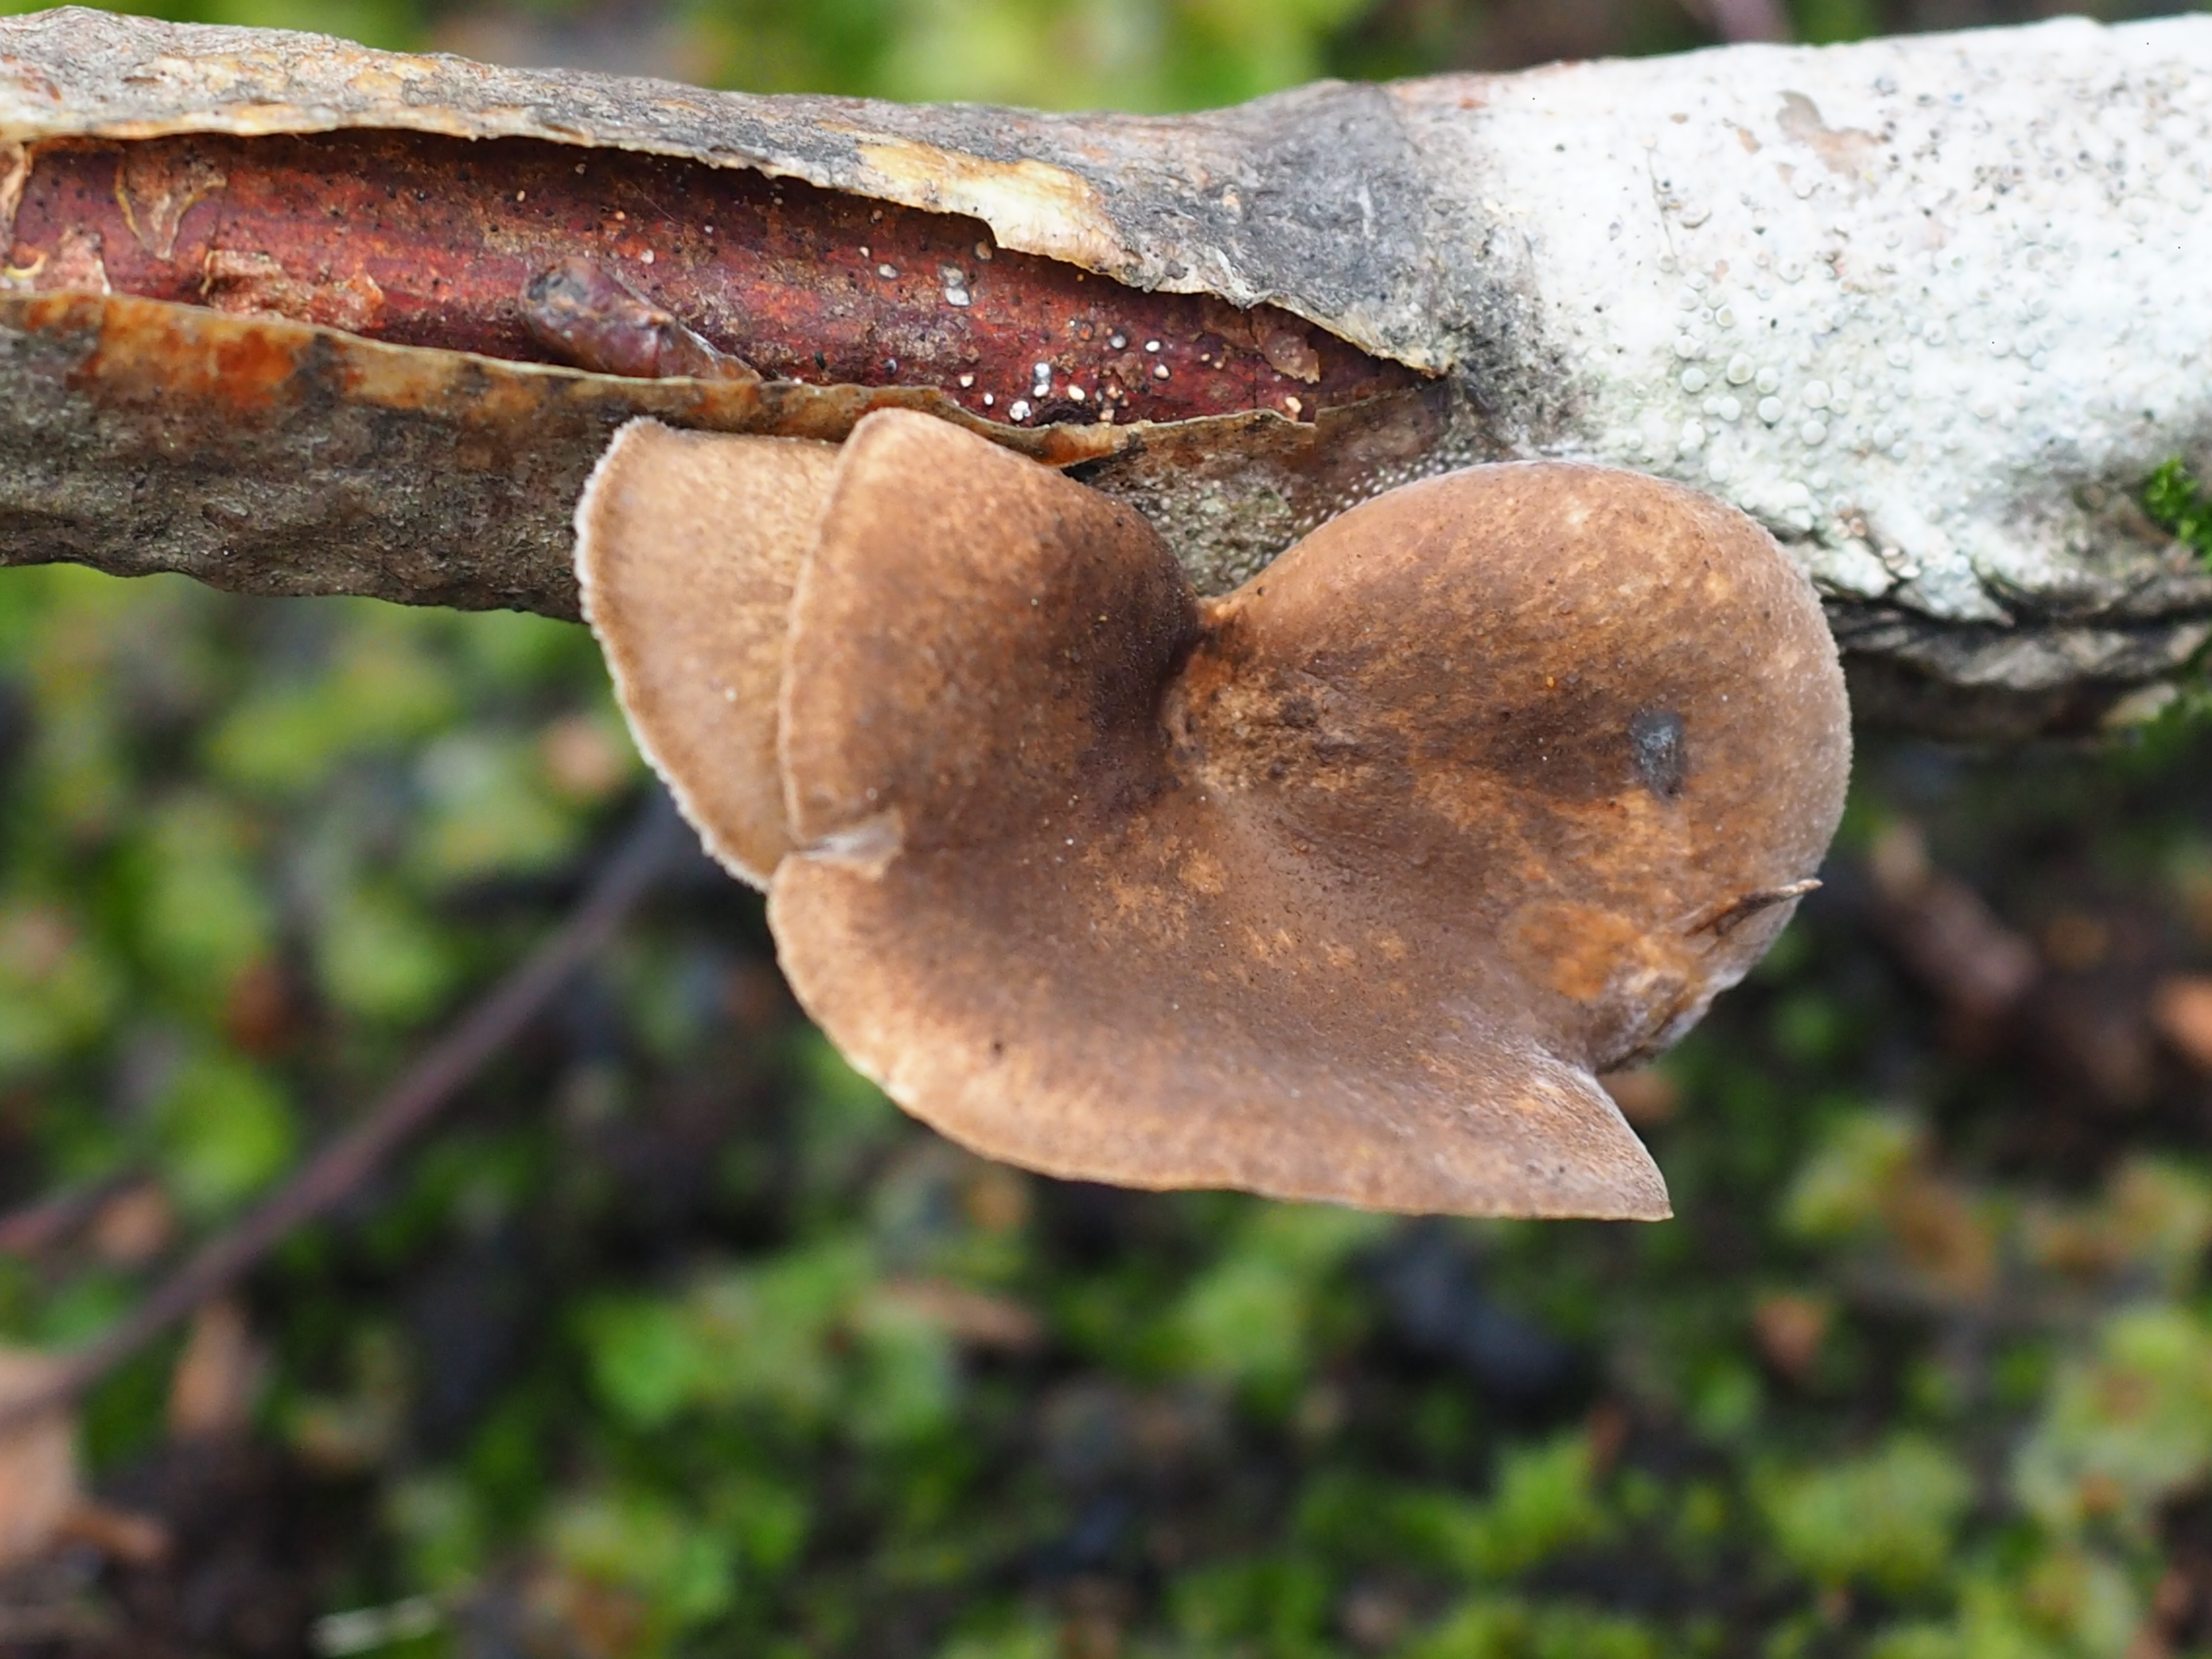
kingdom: Fungi
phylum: Basidiomycota
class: Agaricomycetes
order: Polyporales
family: Polyporaceae
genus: Lentinus
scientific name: Lentinus brumalis
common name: Winter polypore
